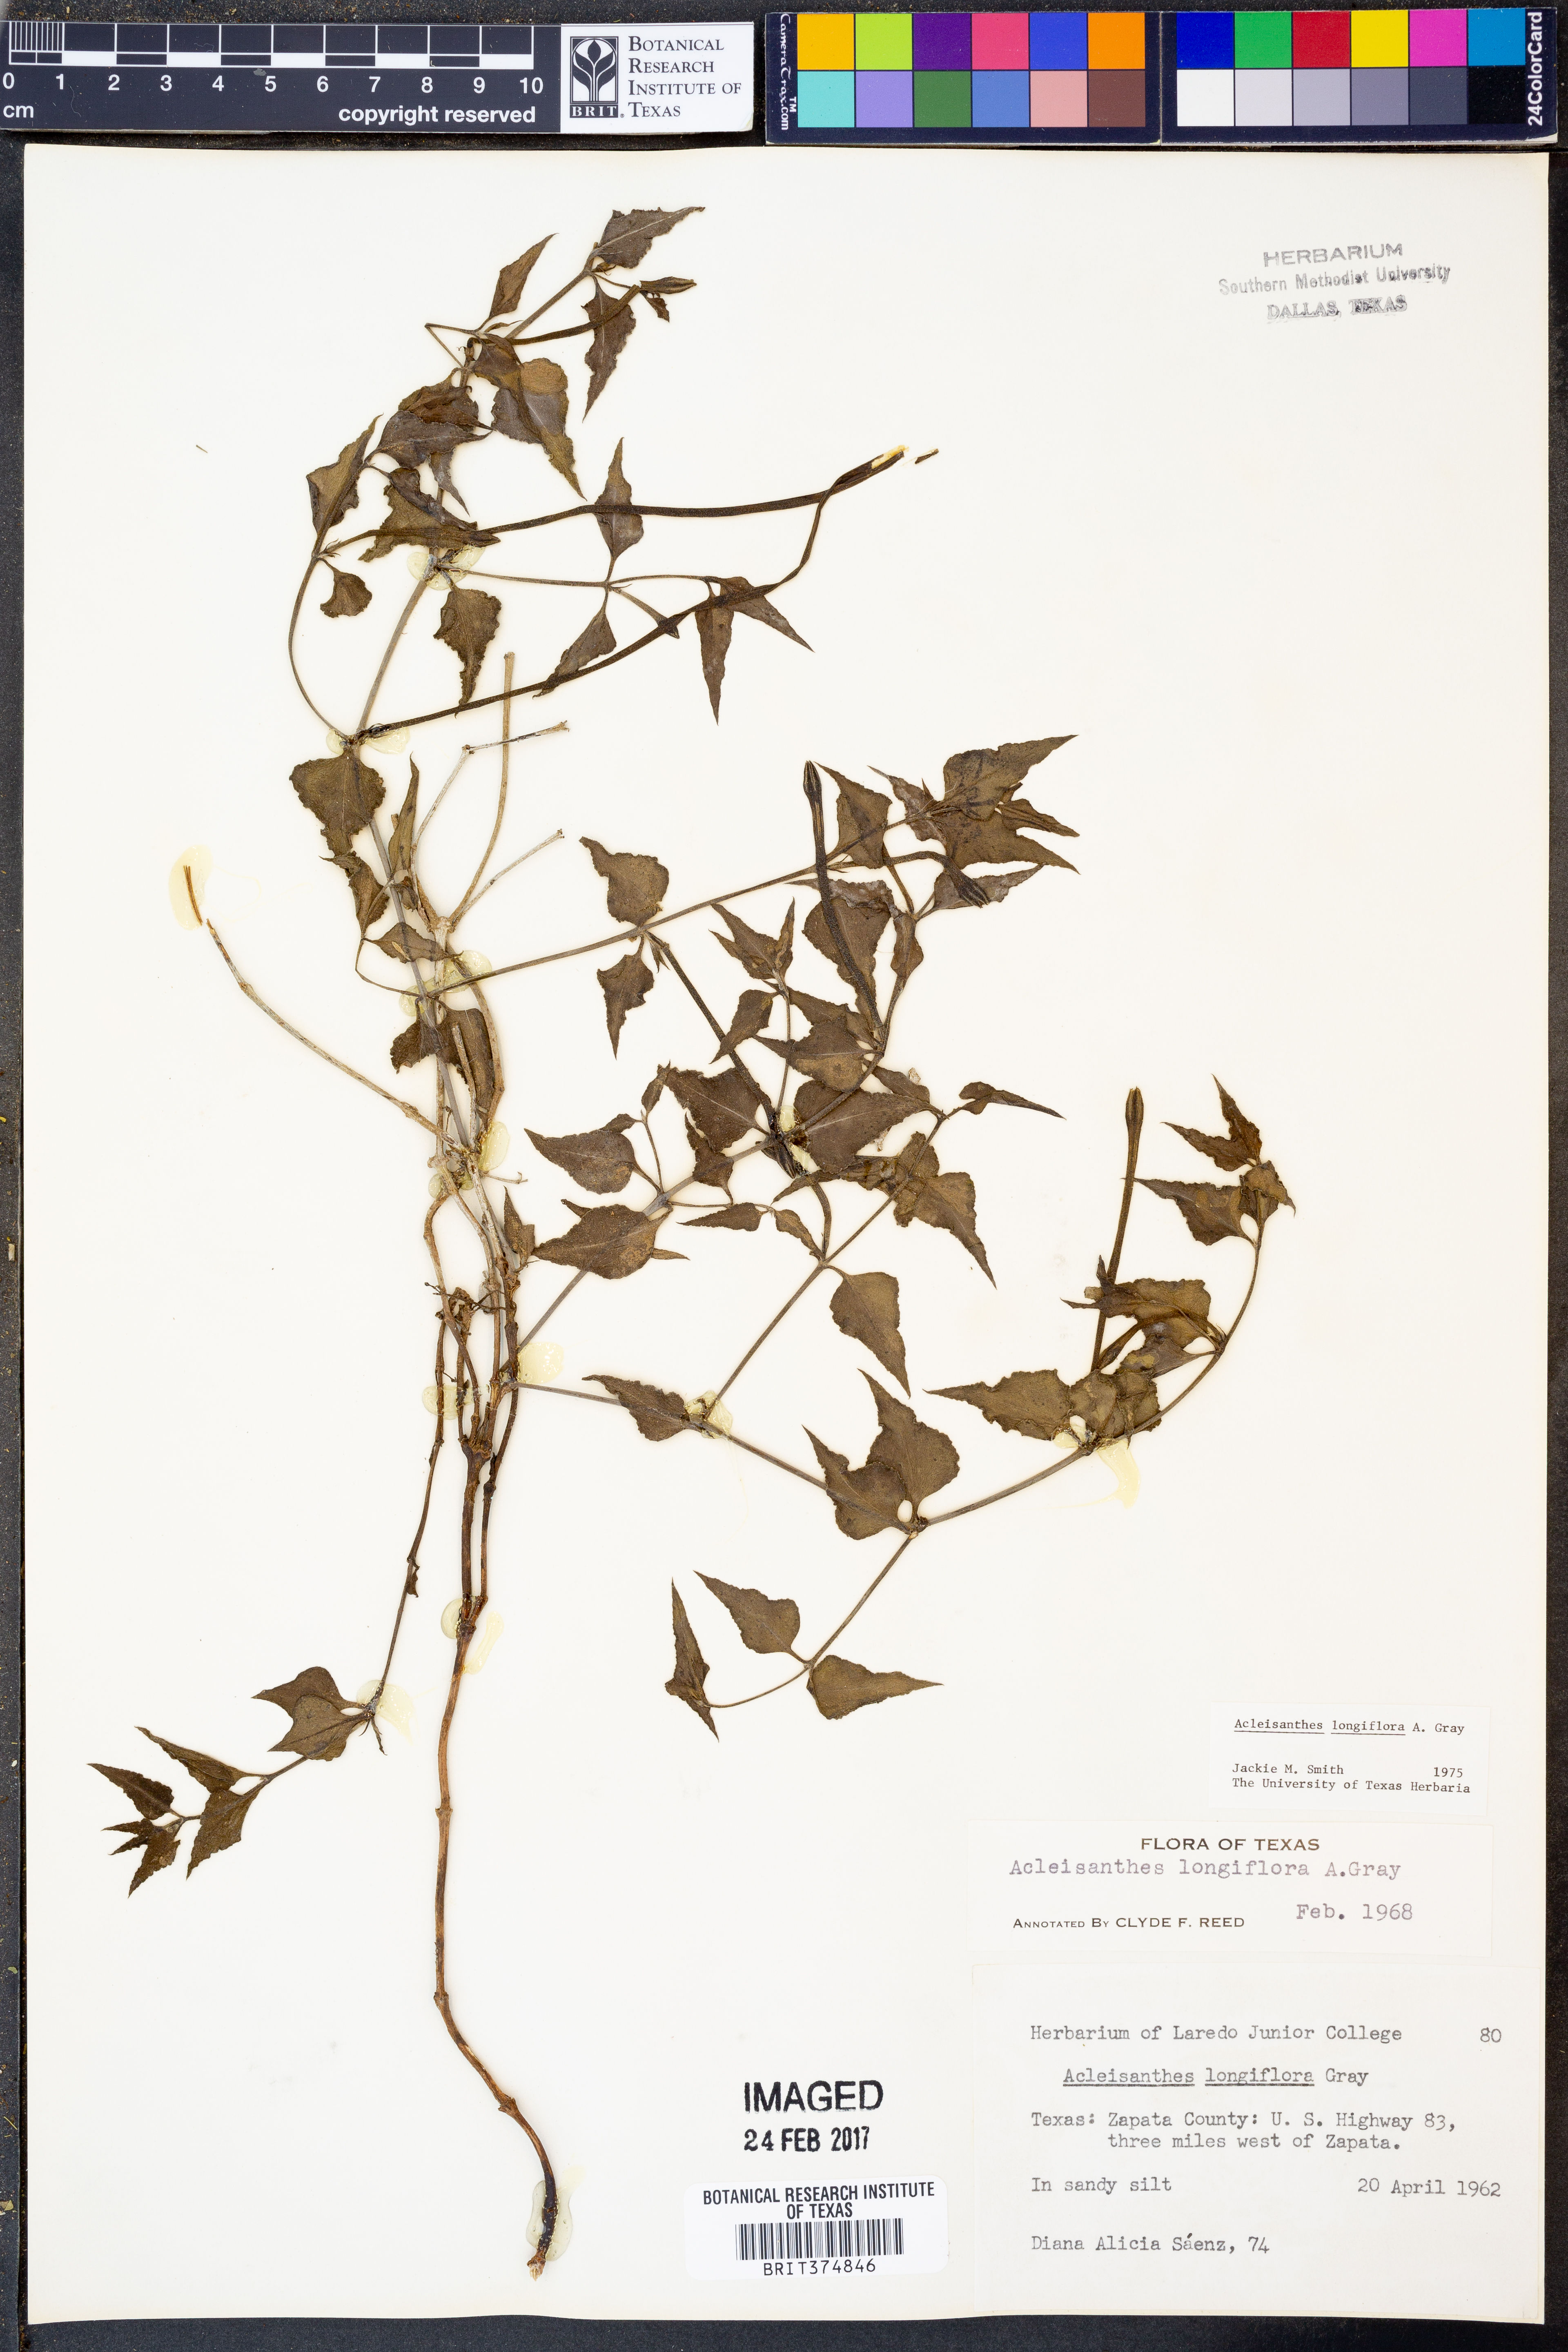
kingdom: Plantae
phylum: Tracheophyta
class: Magnoliopsida
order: Caryophyllales
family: Nyctaginaceae
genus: Acleisanthes
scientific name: Acleisanthes longiflora
